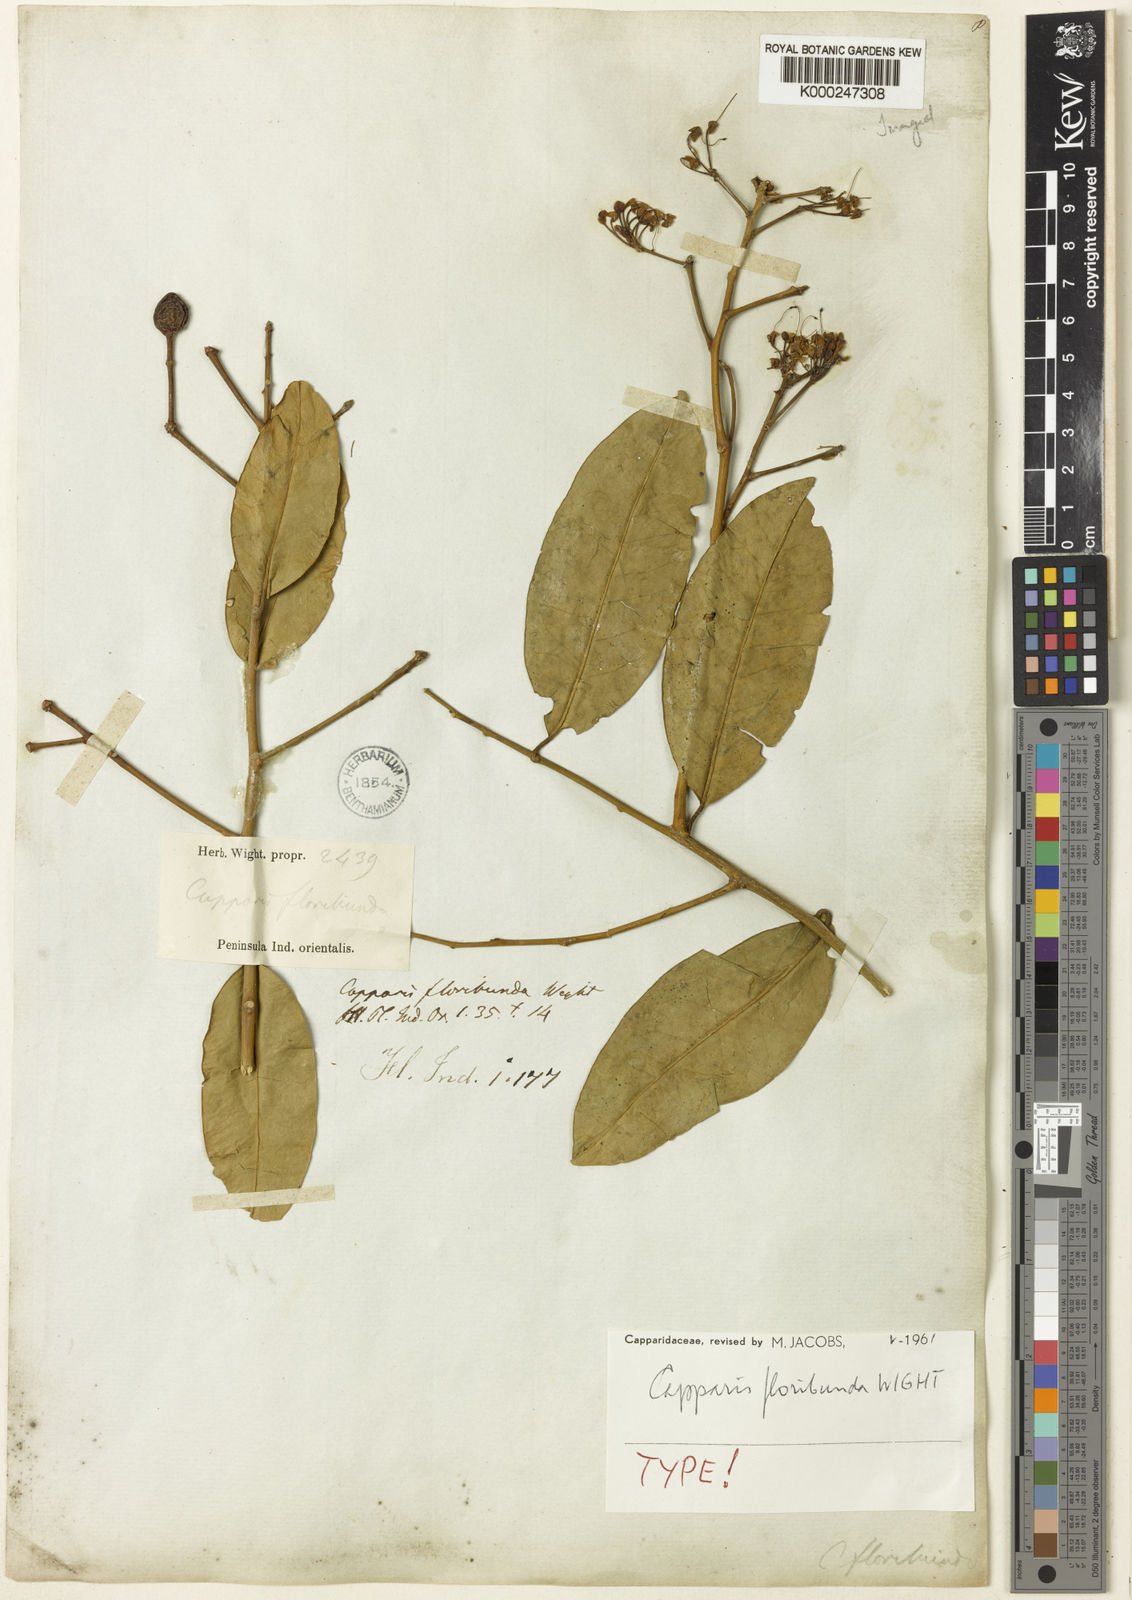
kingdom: Plantae
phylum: Tracheophyta
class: Magnoliopsida
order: Brassicales
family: Capparaceae
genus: Capparis
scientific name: Capparis floribunda
